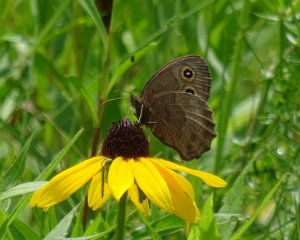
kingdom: Animalia
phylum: Arthropoda
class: Insecta
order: Lepidoptera
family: Nymphalidae
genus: Cercyonis
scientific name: Cercyonis pegala
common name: Common Wood-Nymph
